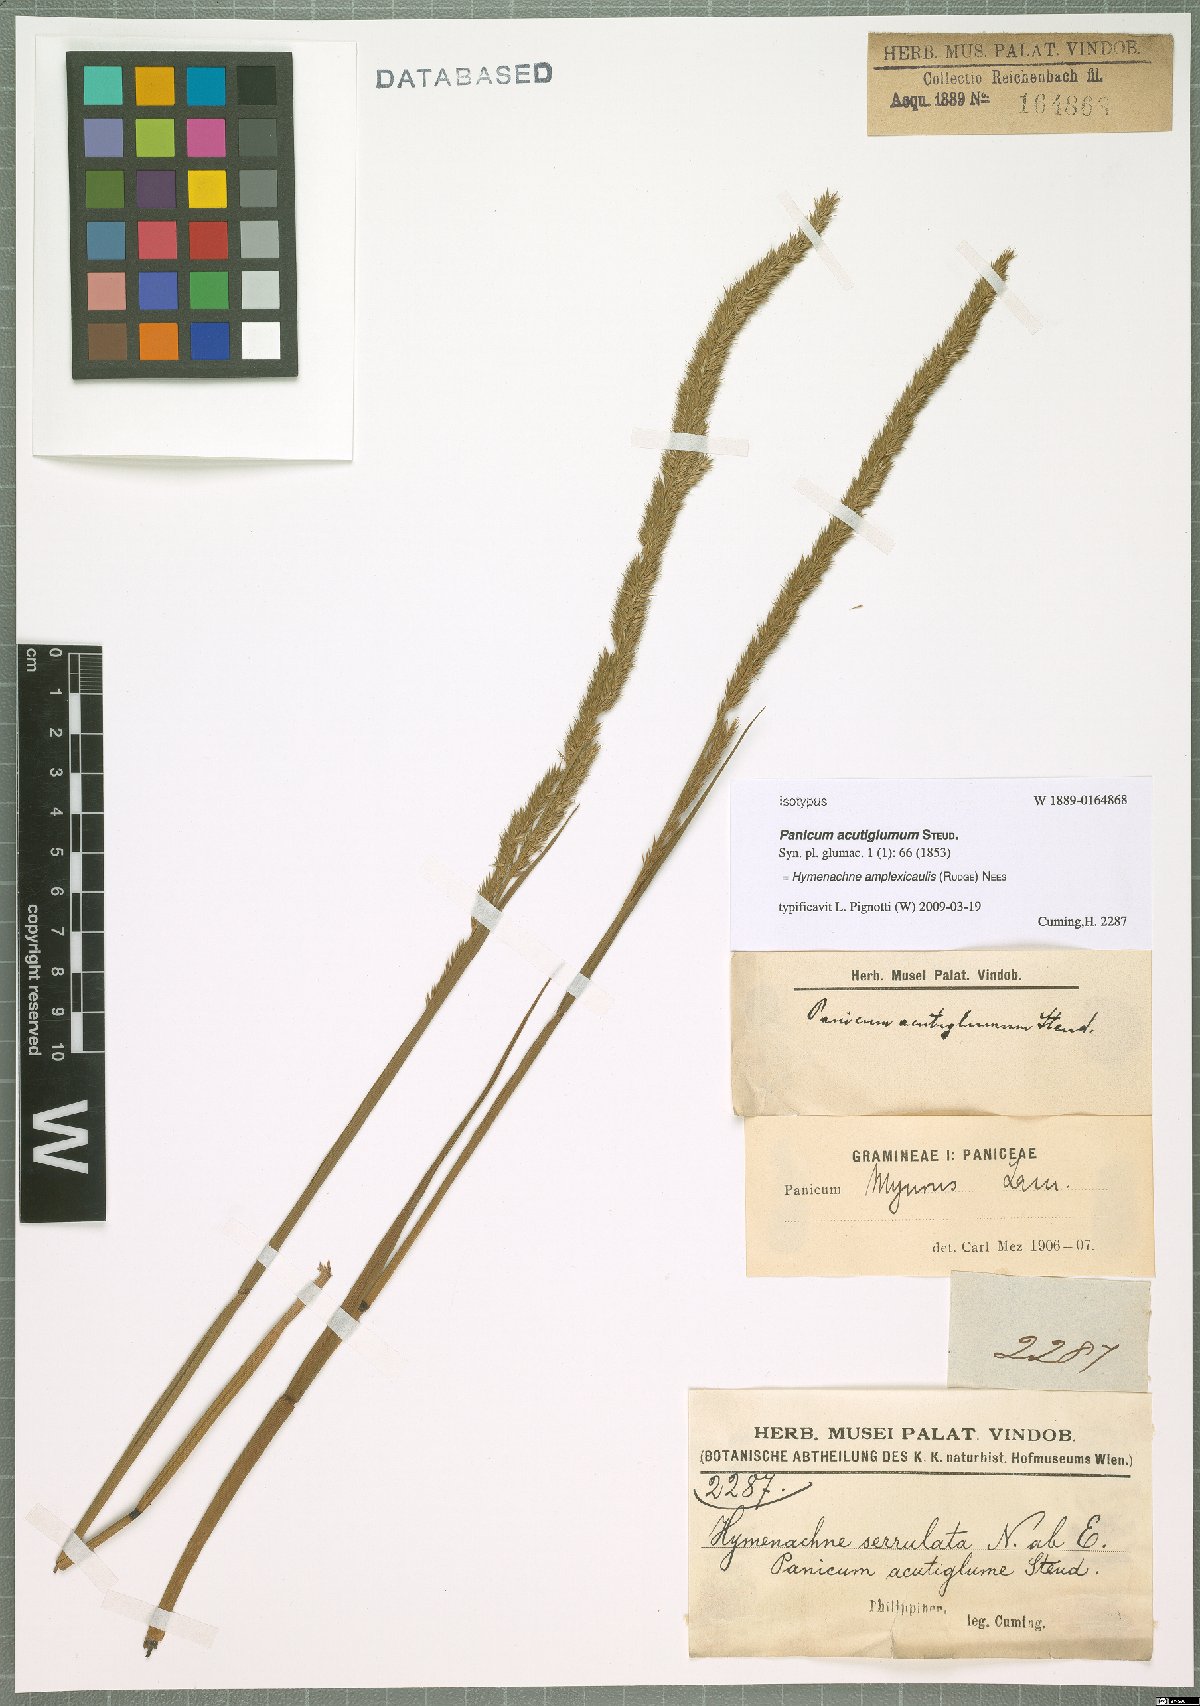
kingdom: Plantae
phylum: Tracheophyta
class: Liliopsida
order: Poales
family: Poaceae
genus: Hymenachne
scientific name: Hymenachne amplexicaulis
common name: Olive hymenachne
